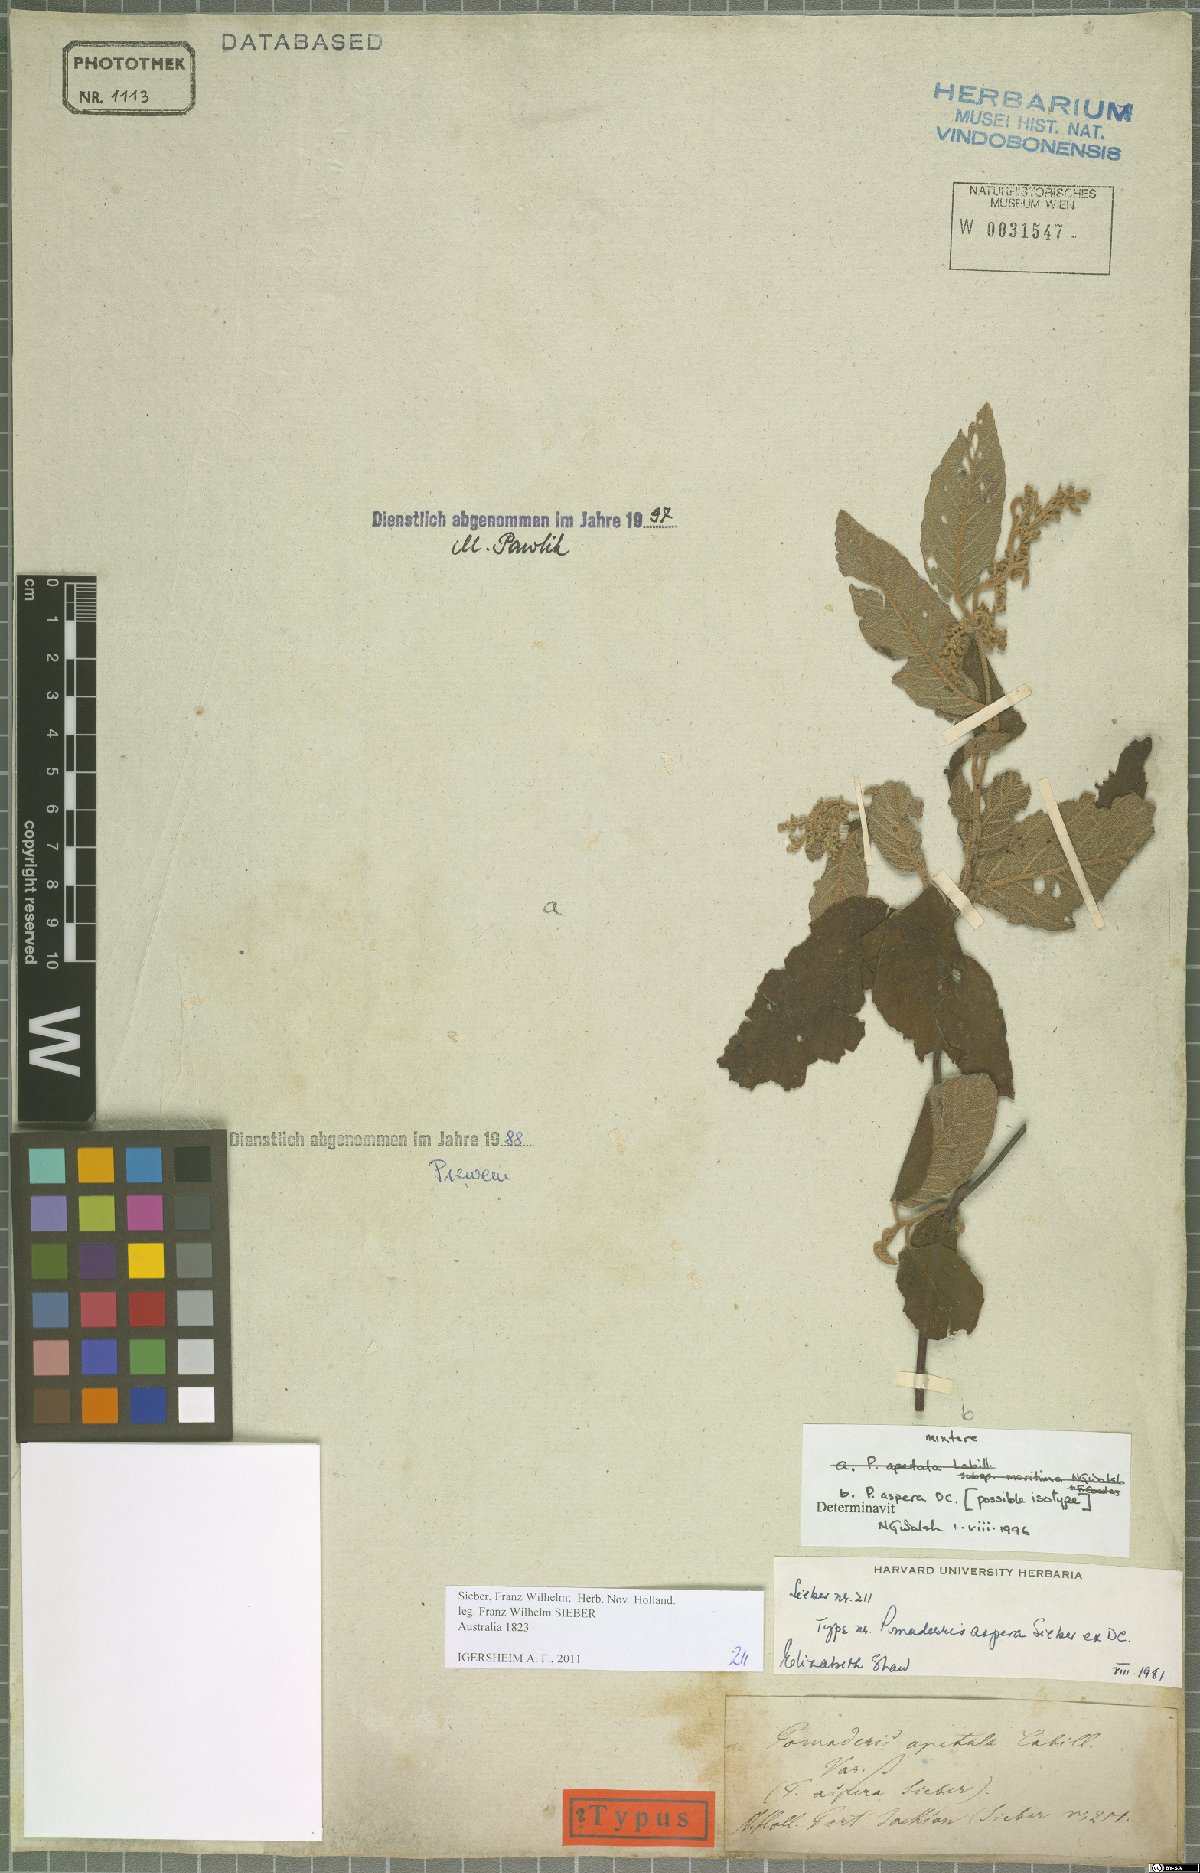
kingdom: Plantae
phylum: Tracheophyta
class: Magnoliopsida
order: Rosales
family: Rhamnaceae
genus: Pomaderris
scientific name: Pomaderris aspera
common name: Hazel pomaderris
